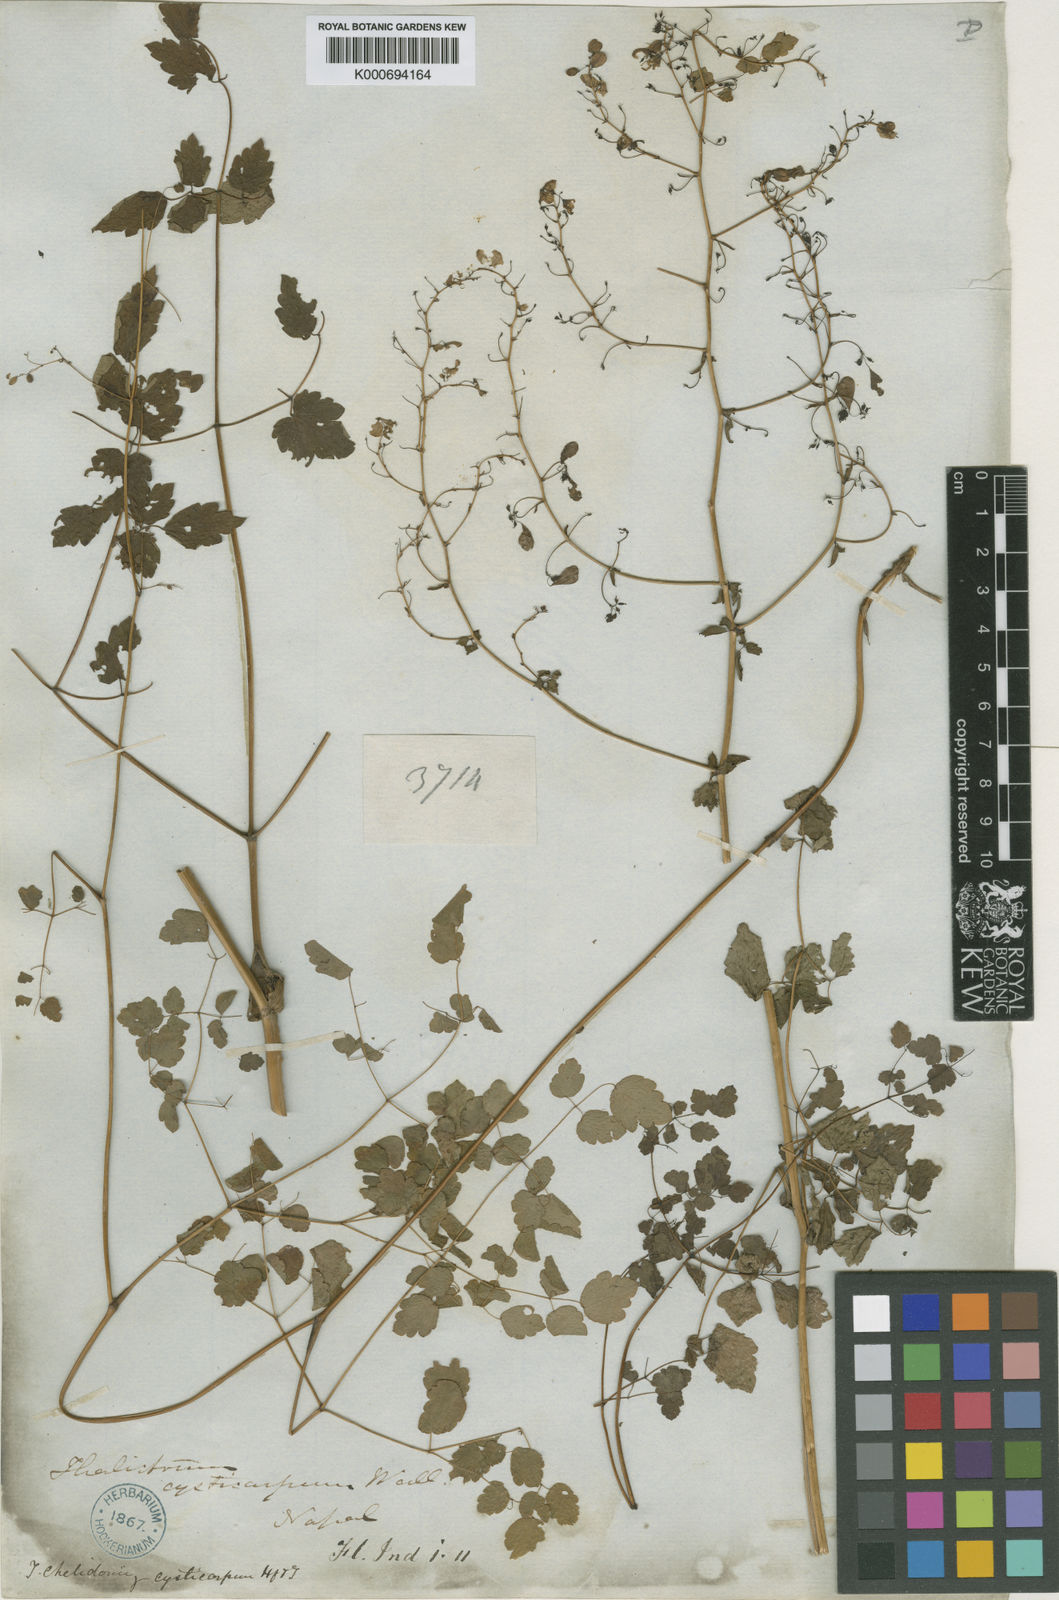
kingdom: Plantae
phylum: Tracheophyta
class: Magnoliopsida
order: Ranunculales
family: Ranunculaceae
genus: Thalictrum
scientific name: Thalictrum
